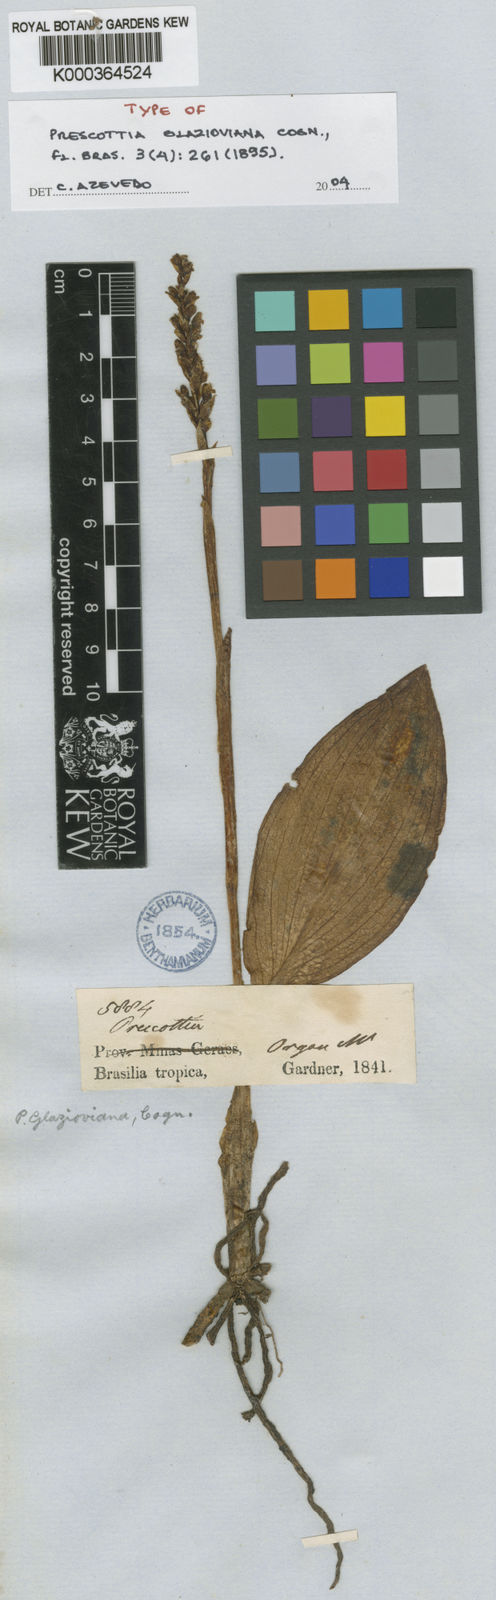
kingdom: Plantae
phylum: Tracheophyta
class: Liliopsida
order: Asparagales
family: Orchidaceae
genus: Prescottia
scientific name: Prescottia glazioviana
